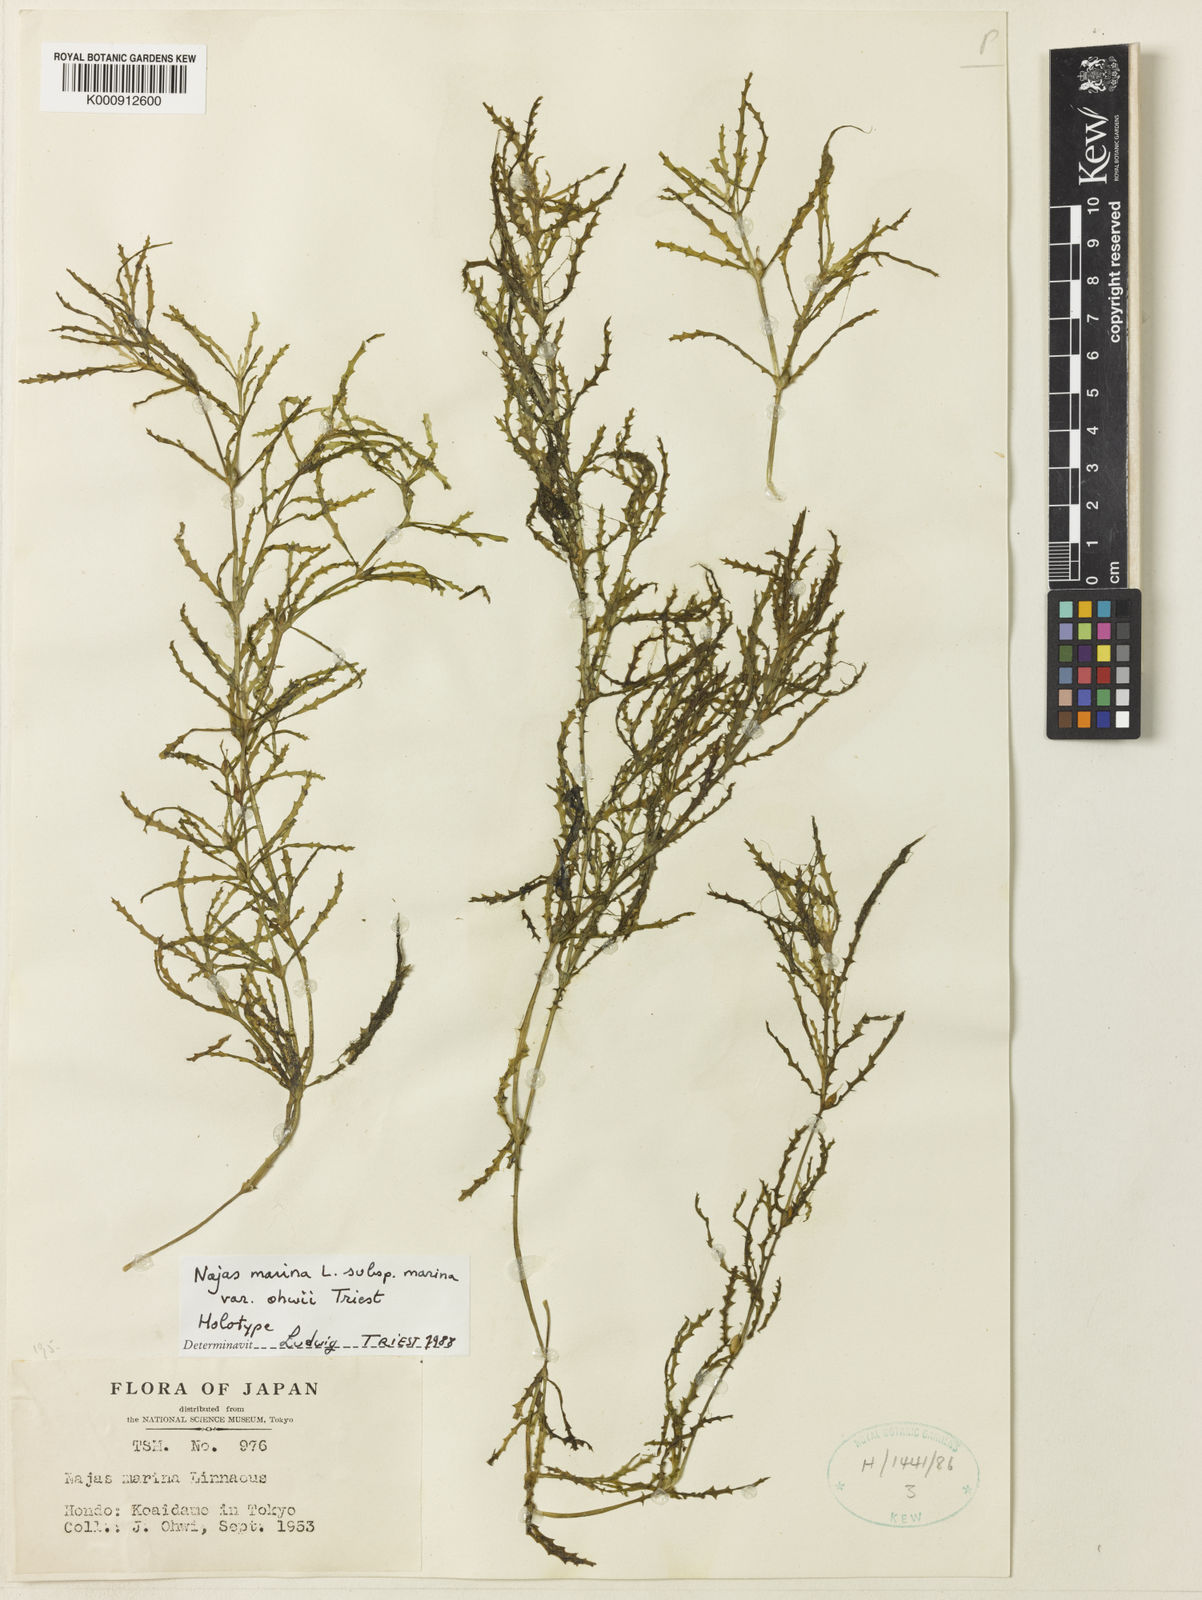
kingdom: Plantae
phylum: Tracheophyta
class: Liliopsida
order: Alismatales
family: Hydrocharitaceae
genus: Najas
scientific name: Najas minor
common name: Brittle naiad
